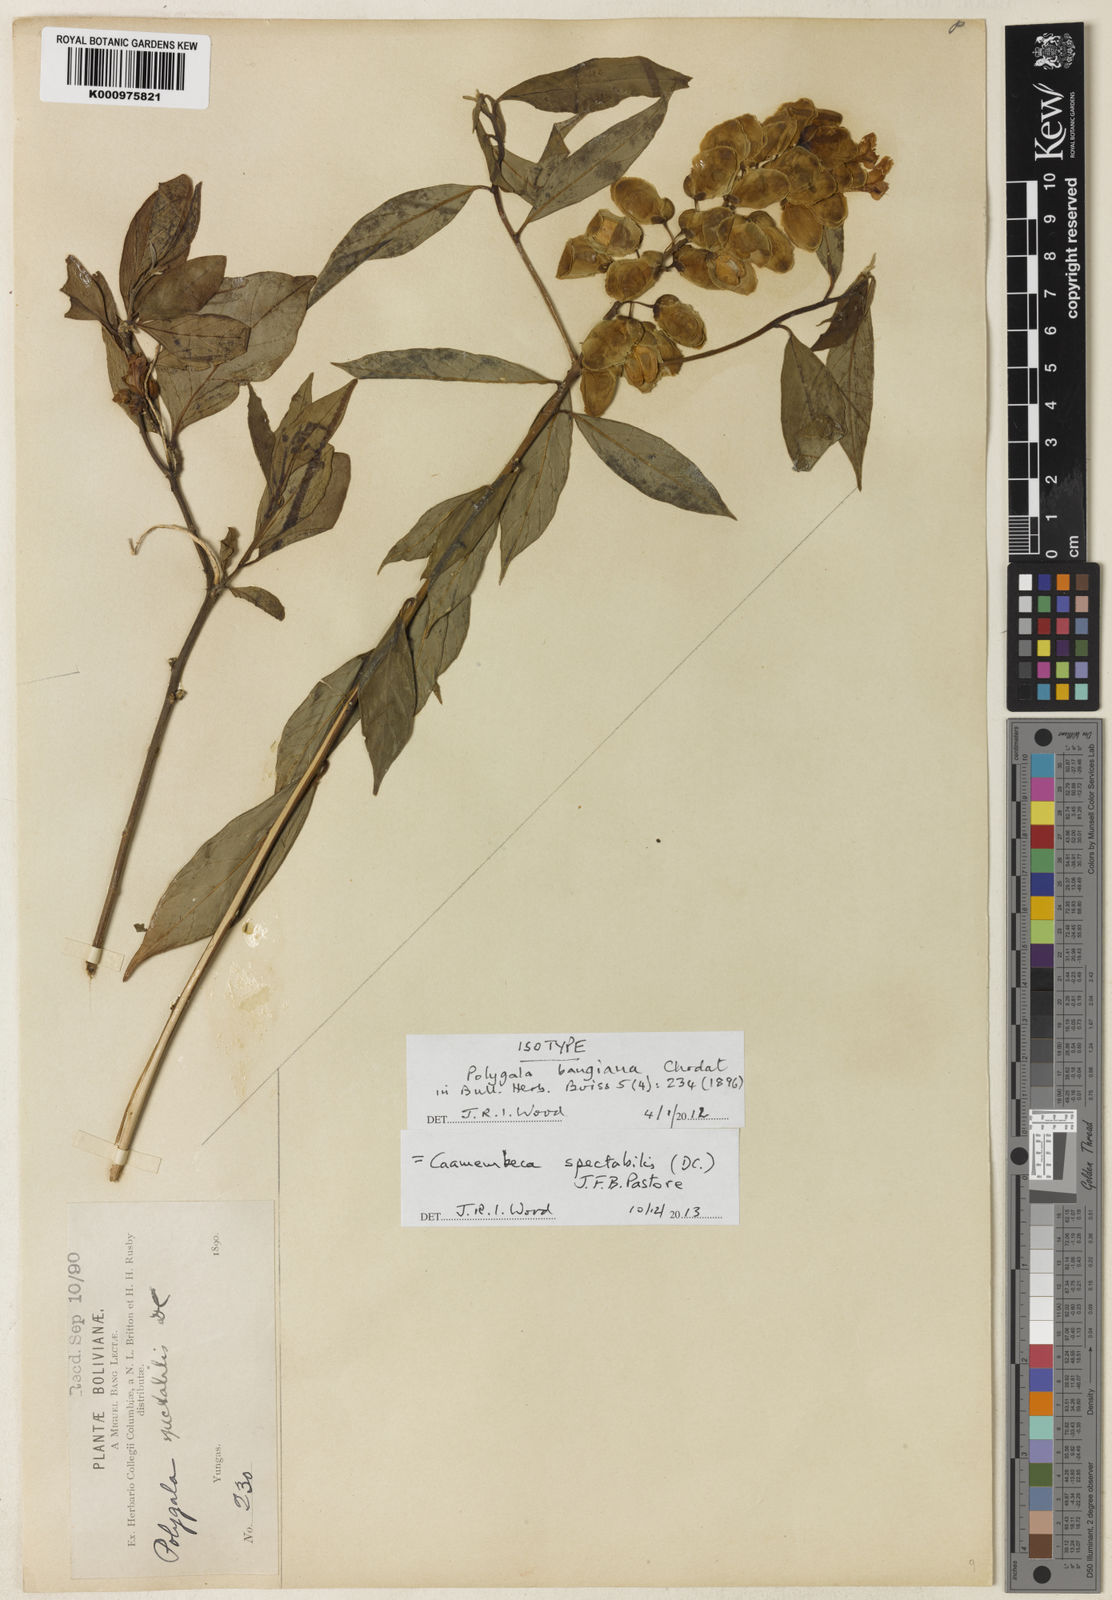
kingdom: Plantae
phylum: Tracheophyta
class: Magnoliopsida
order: Fabales
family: Polygalaceae
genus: Caamembeca
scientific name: Caamembeca spectabilis
